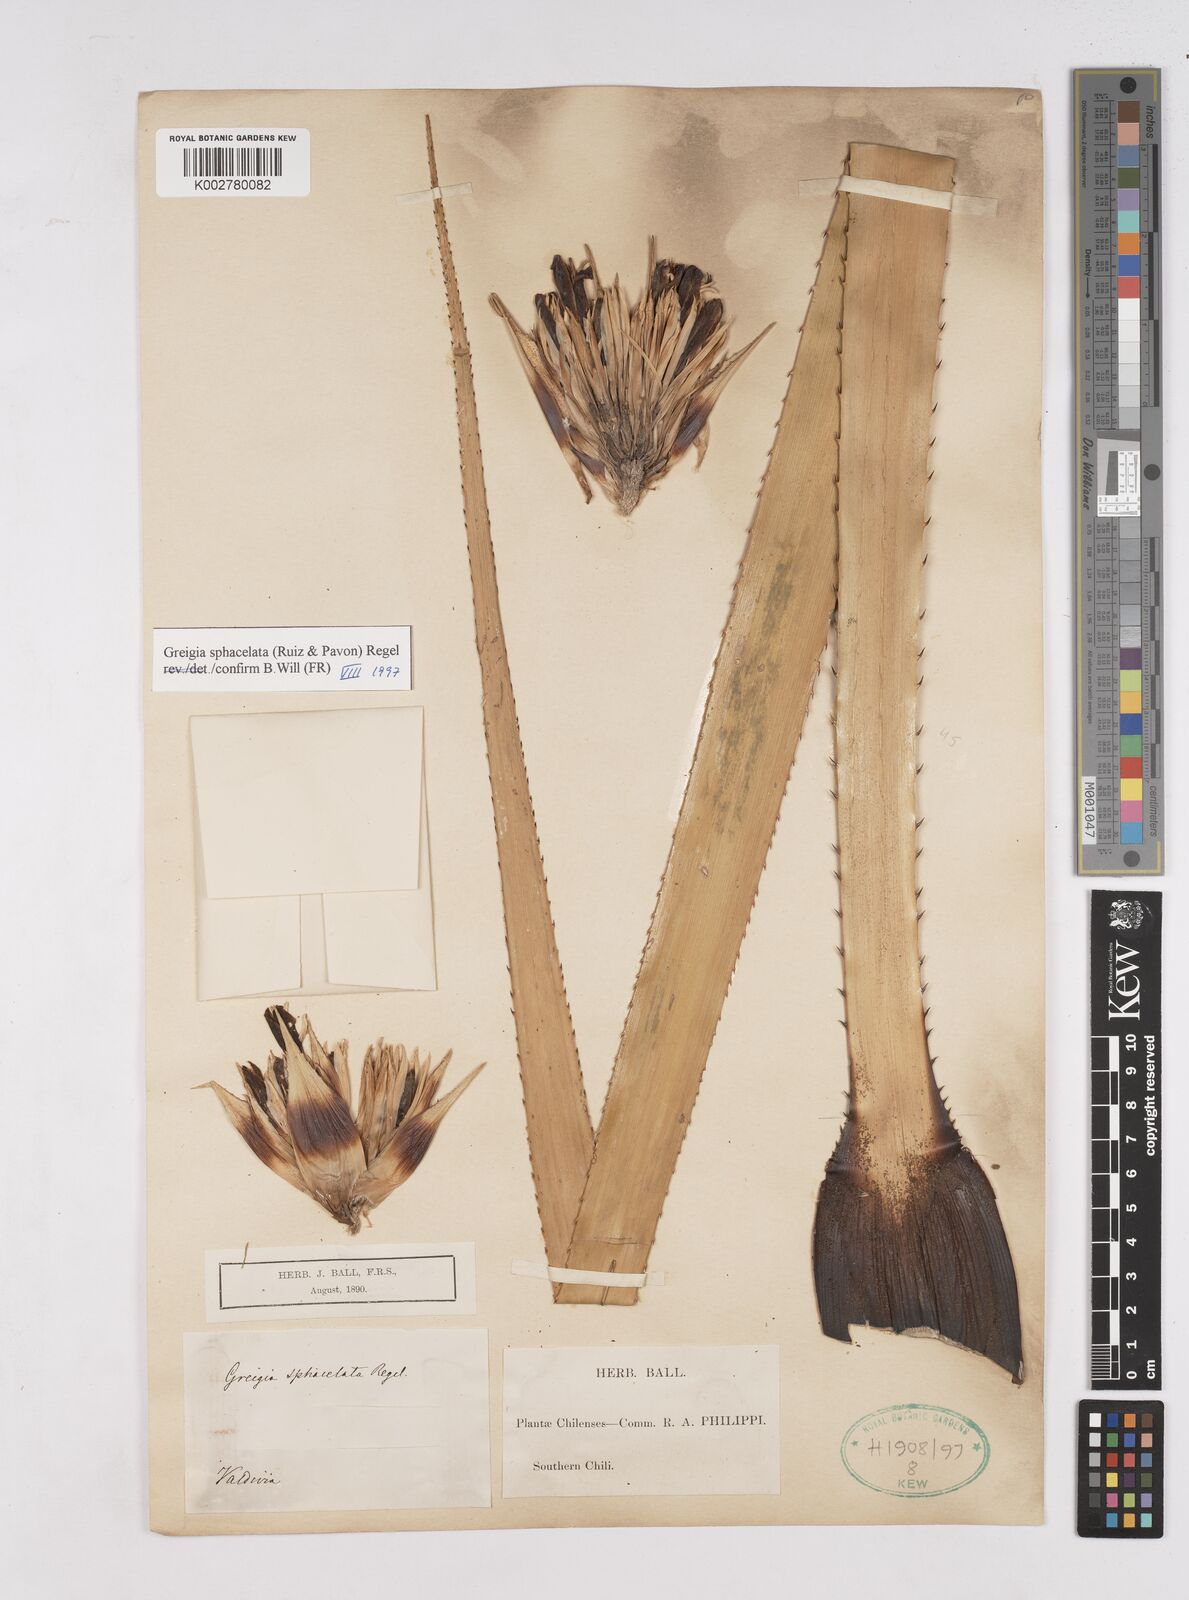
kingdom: Plantae
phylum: Tracheophyta
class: Liliopsida
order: Poales
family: Bromeliaceae
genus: Greigia
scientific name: Greigia sphacelata
